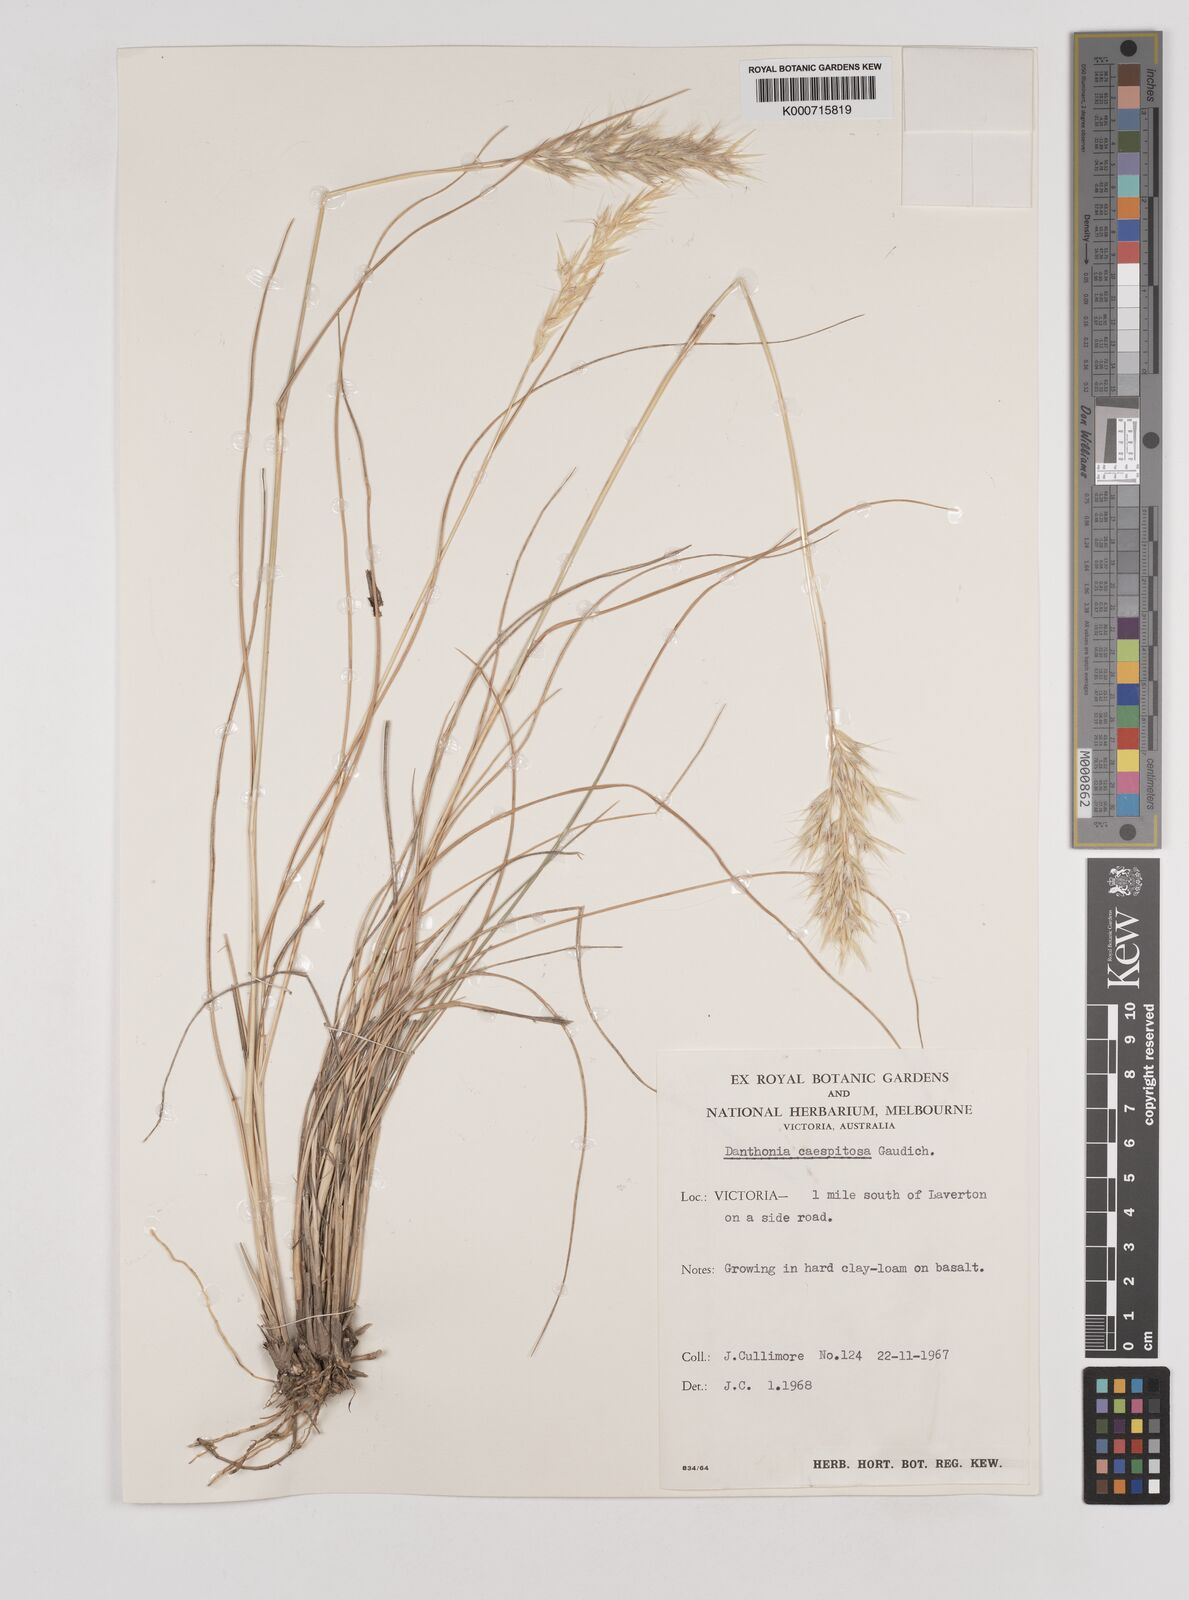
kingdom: Plantae
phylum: Tracheophyta
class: Liliopsida
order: Poales
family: Poaceae
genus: Rytidosperma
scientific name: Rytidosperma caespitosum
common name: Tufted wallaby grass
